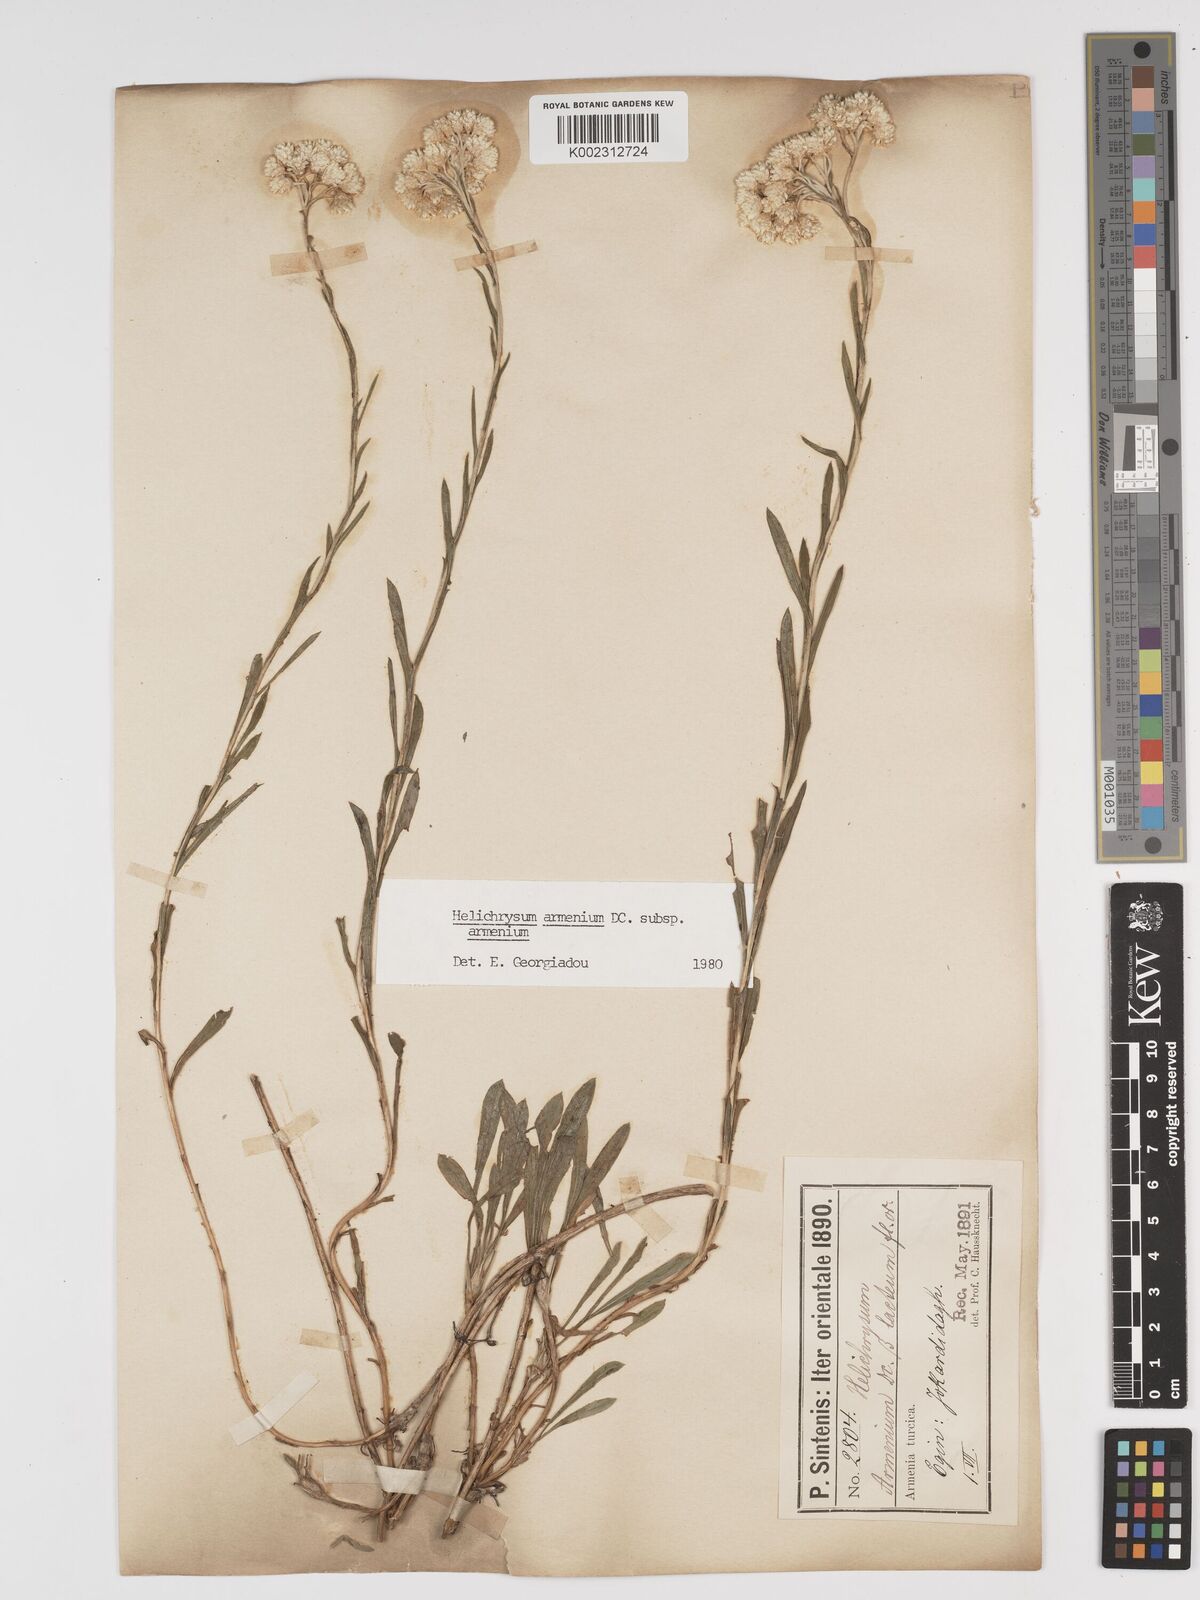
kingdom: Plantae
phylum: Tracheophyta
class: Magnoliopsida
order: Asterales
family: Asteraceae
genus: Helichrysum
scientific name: Helichrysum armenium
